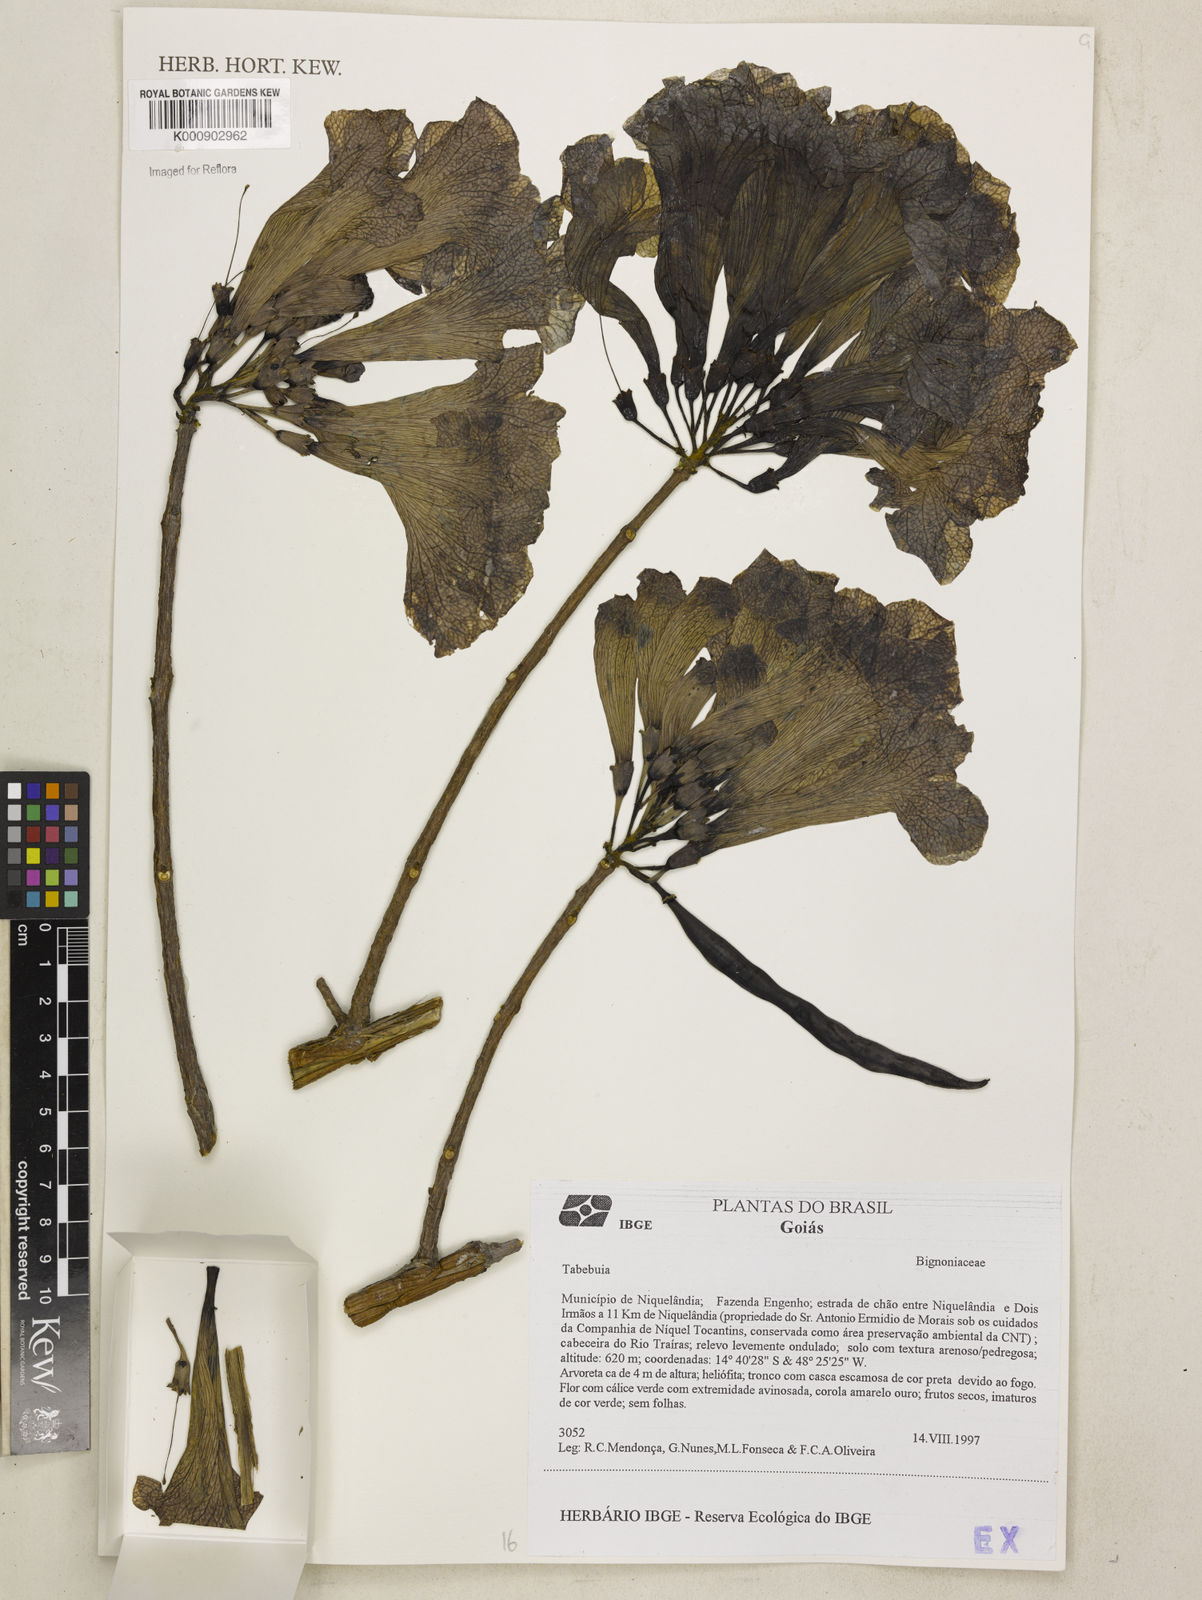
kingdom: Plantae
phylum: Tracheophyta
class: Magnoliopsida
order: Lamiales
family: Bignoniaceae
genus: Tabebuia
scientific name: Tabebuia
